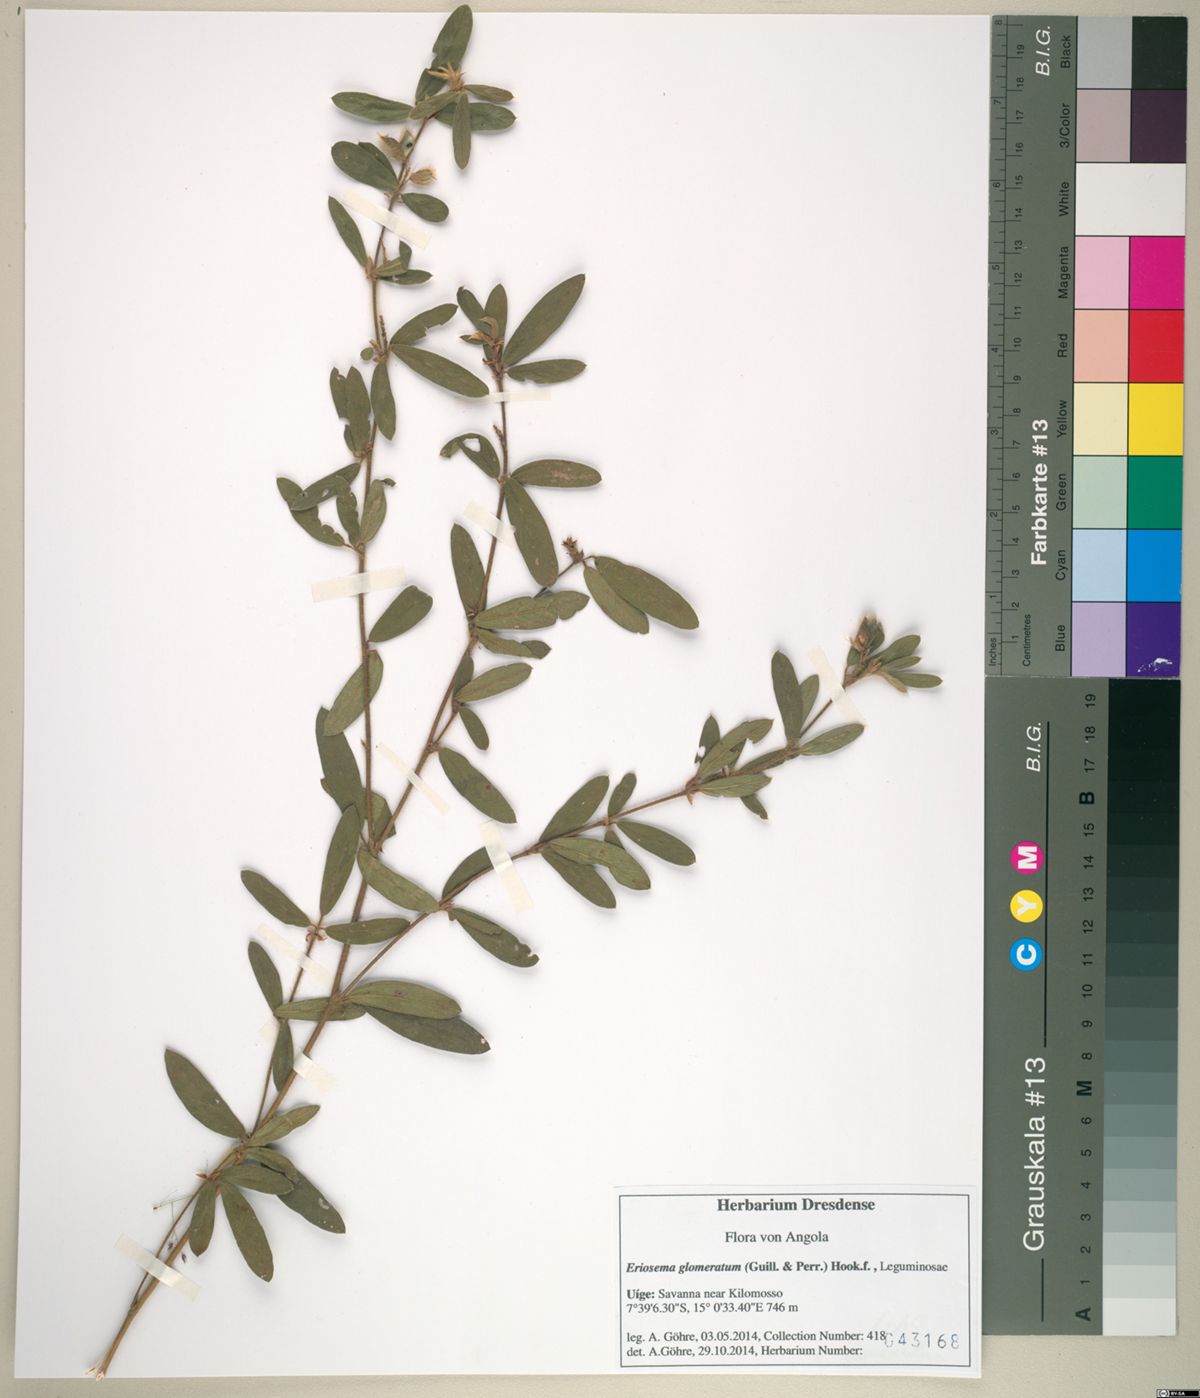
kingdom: Plantae
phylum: Tracheophyta
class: Magnoliopsida
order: Fabales
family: Fabaceae
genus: Eriosema
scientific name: Eriosema glomeratum
